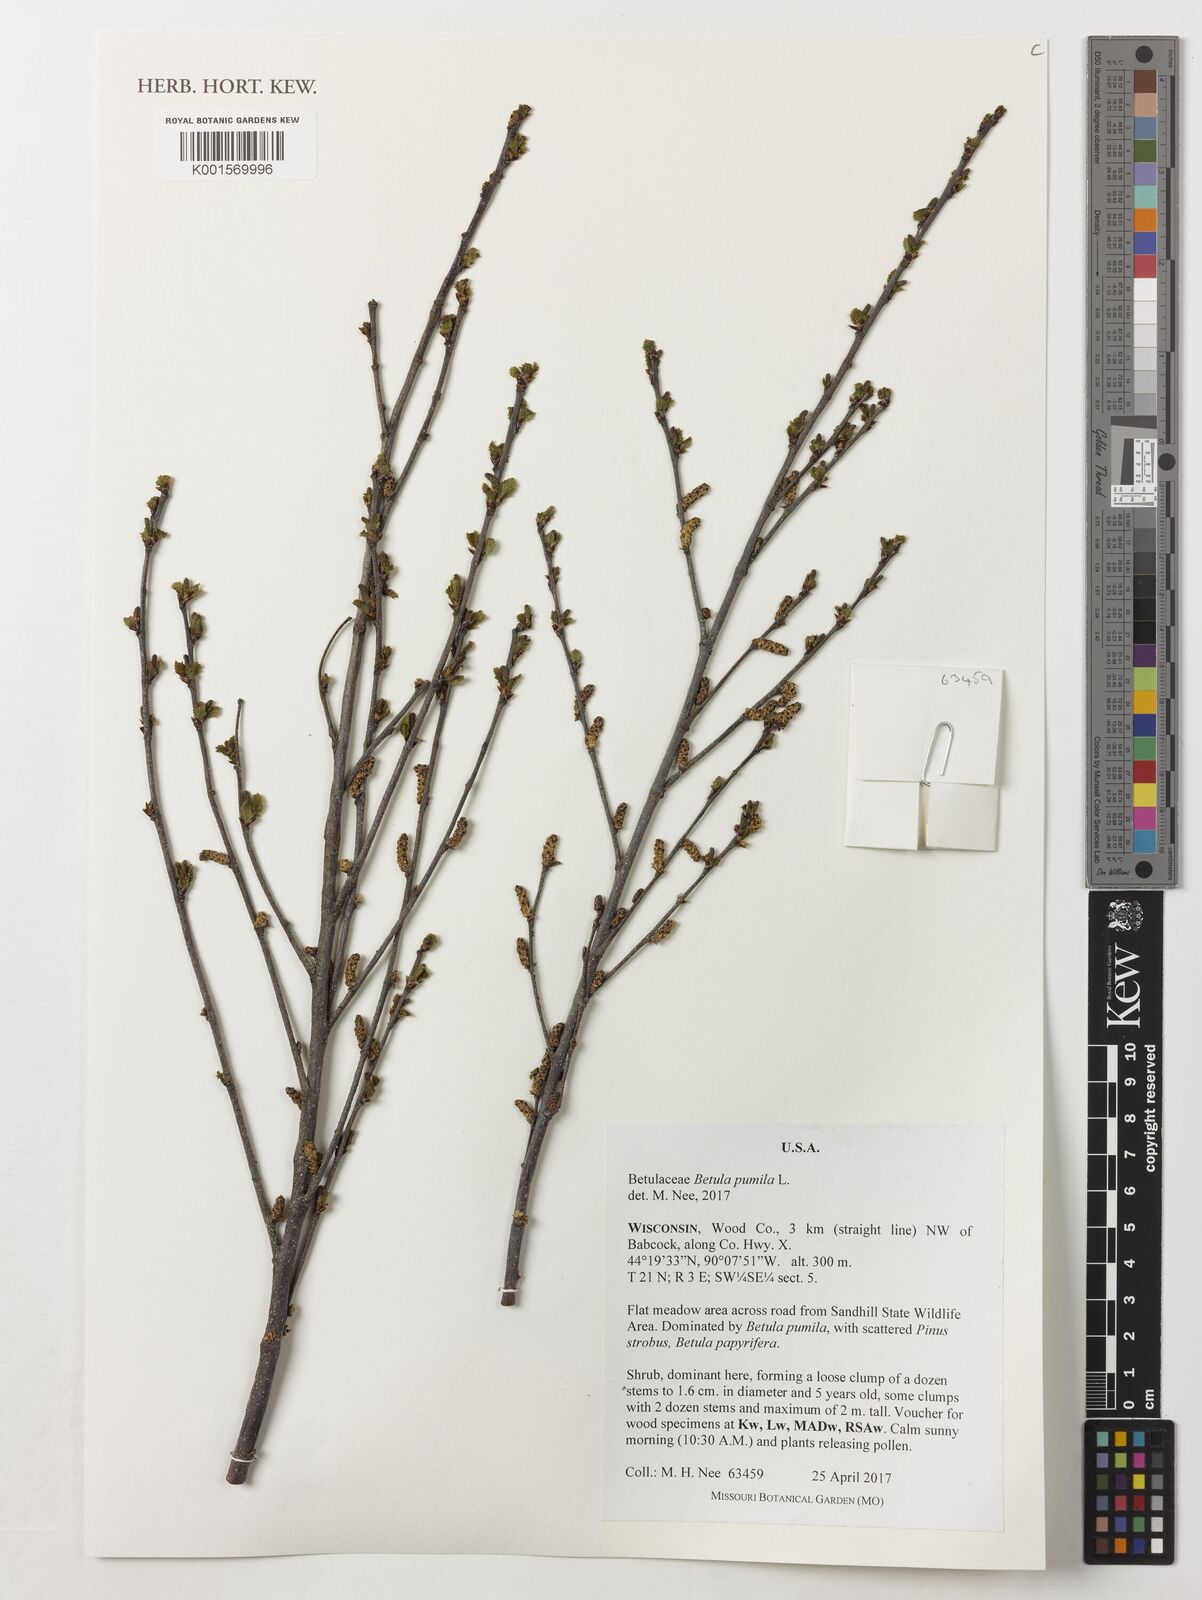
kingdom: Plantae
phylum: Tracheophyta
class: Magnoliopsida
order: Fagales
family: Betulaceae
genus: Betula
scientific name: Betula pumila
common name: Bog birch
